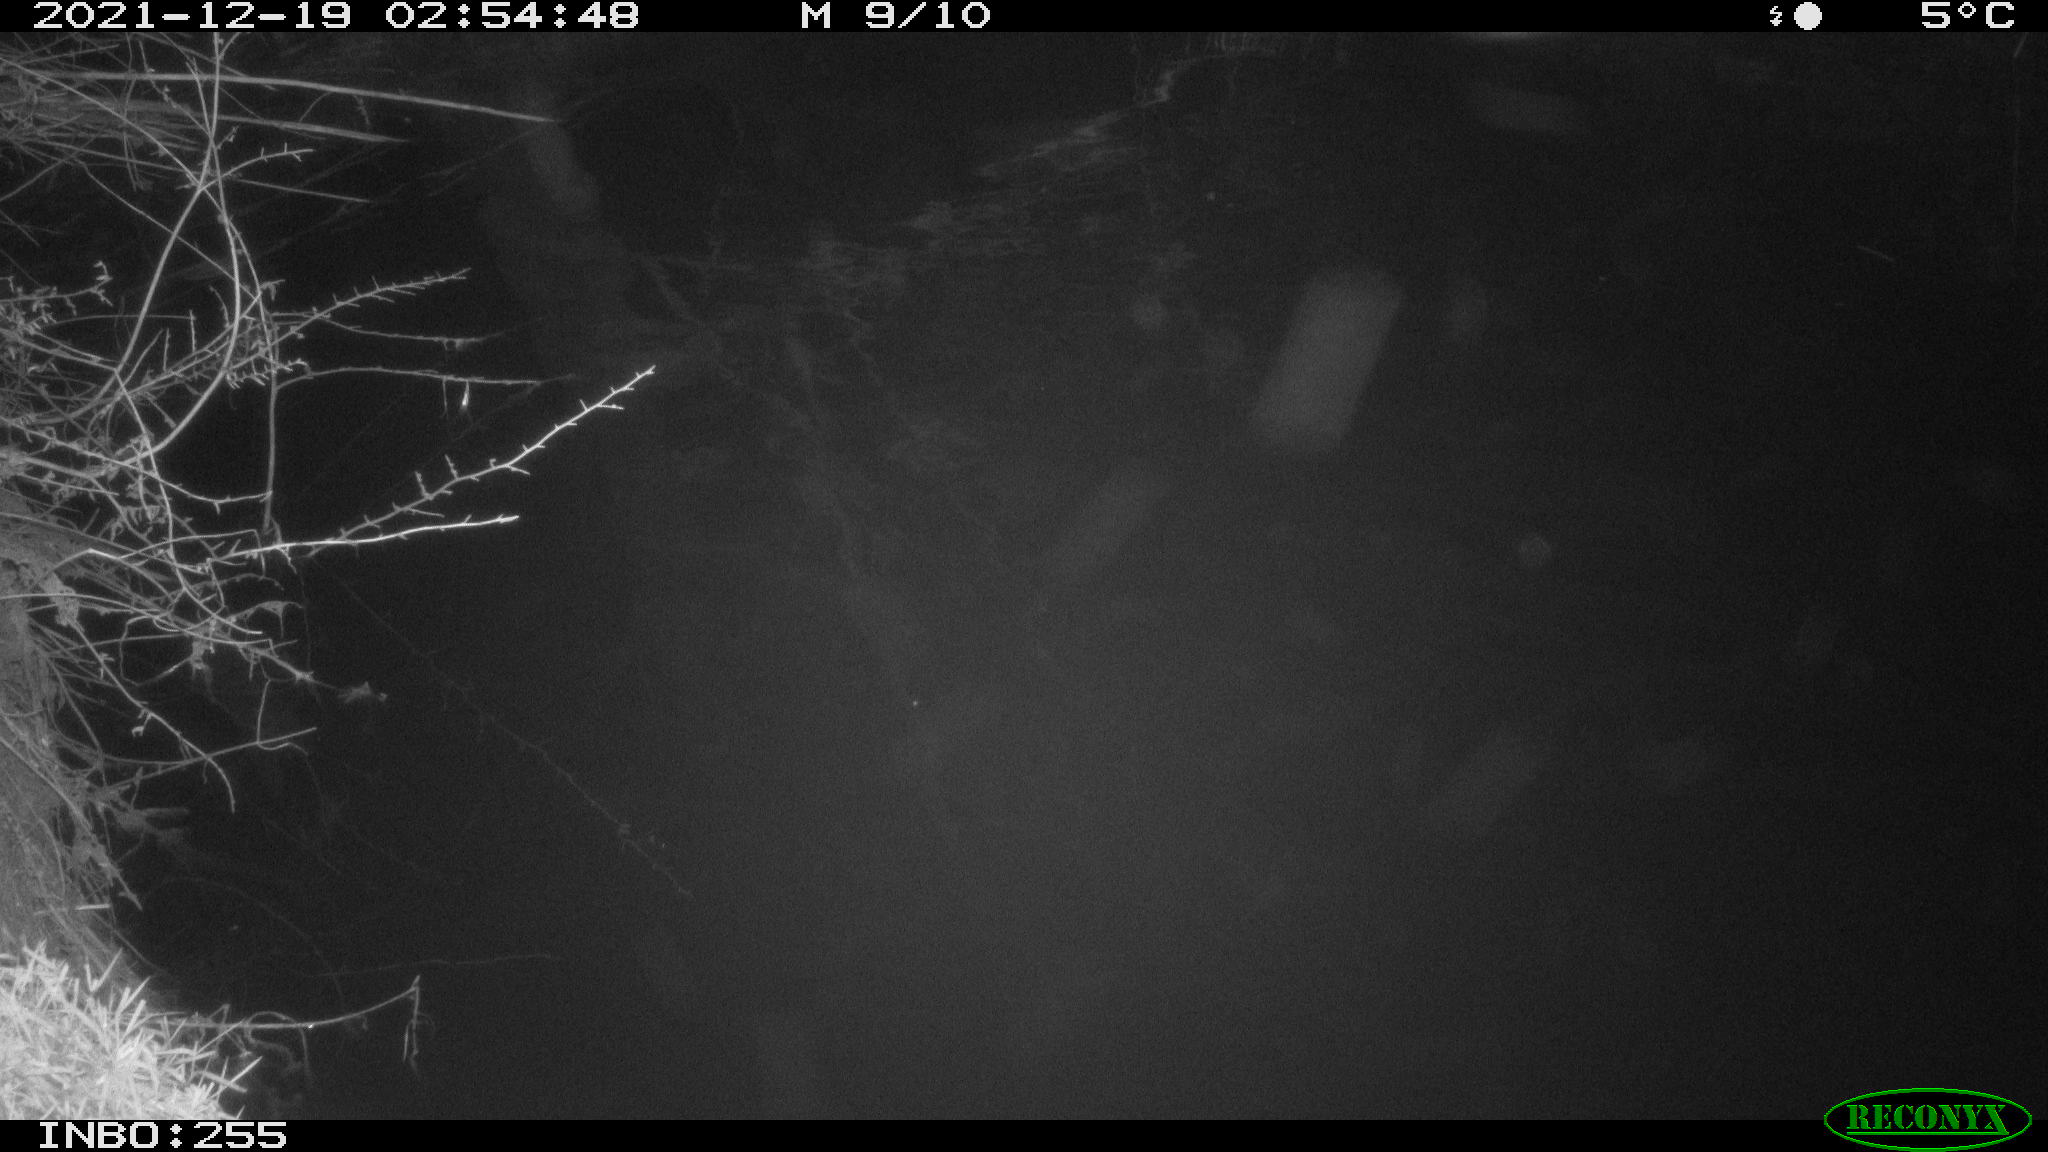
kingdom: Animalia
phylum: Chordata
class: Aves
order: Anseriformes
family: Anatidae
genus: Anas
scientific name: Anas
